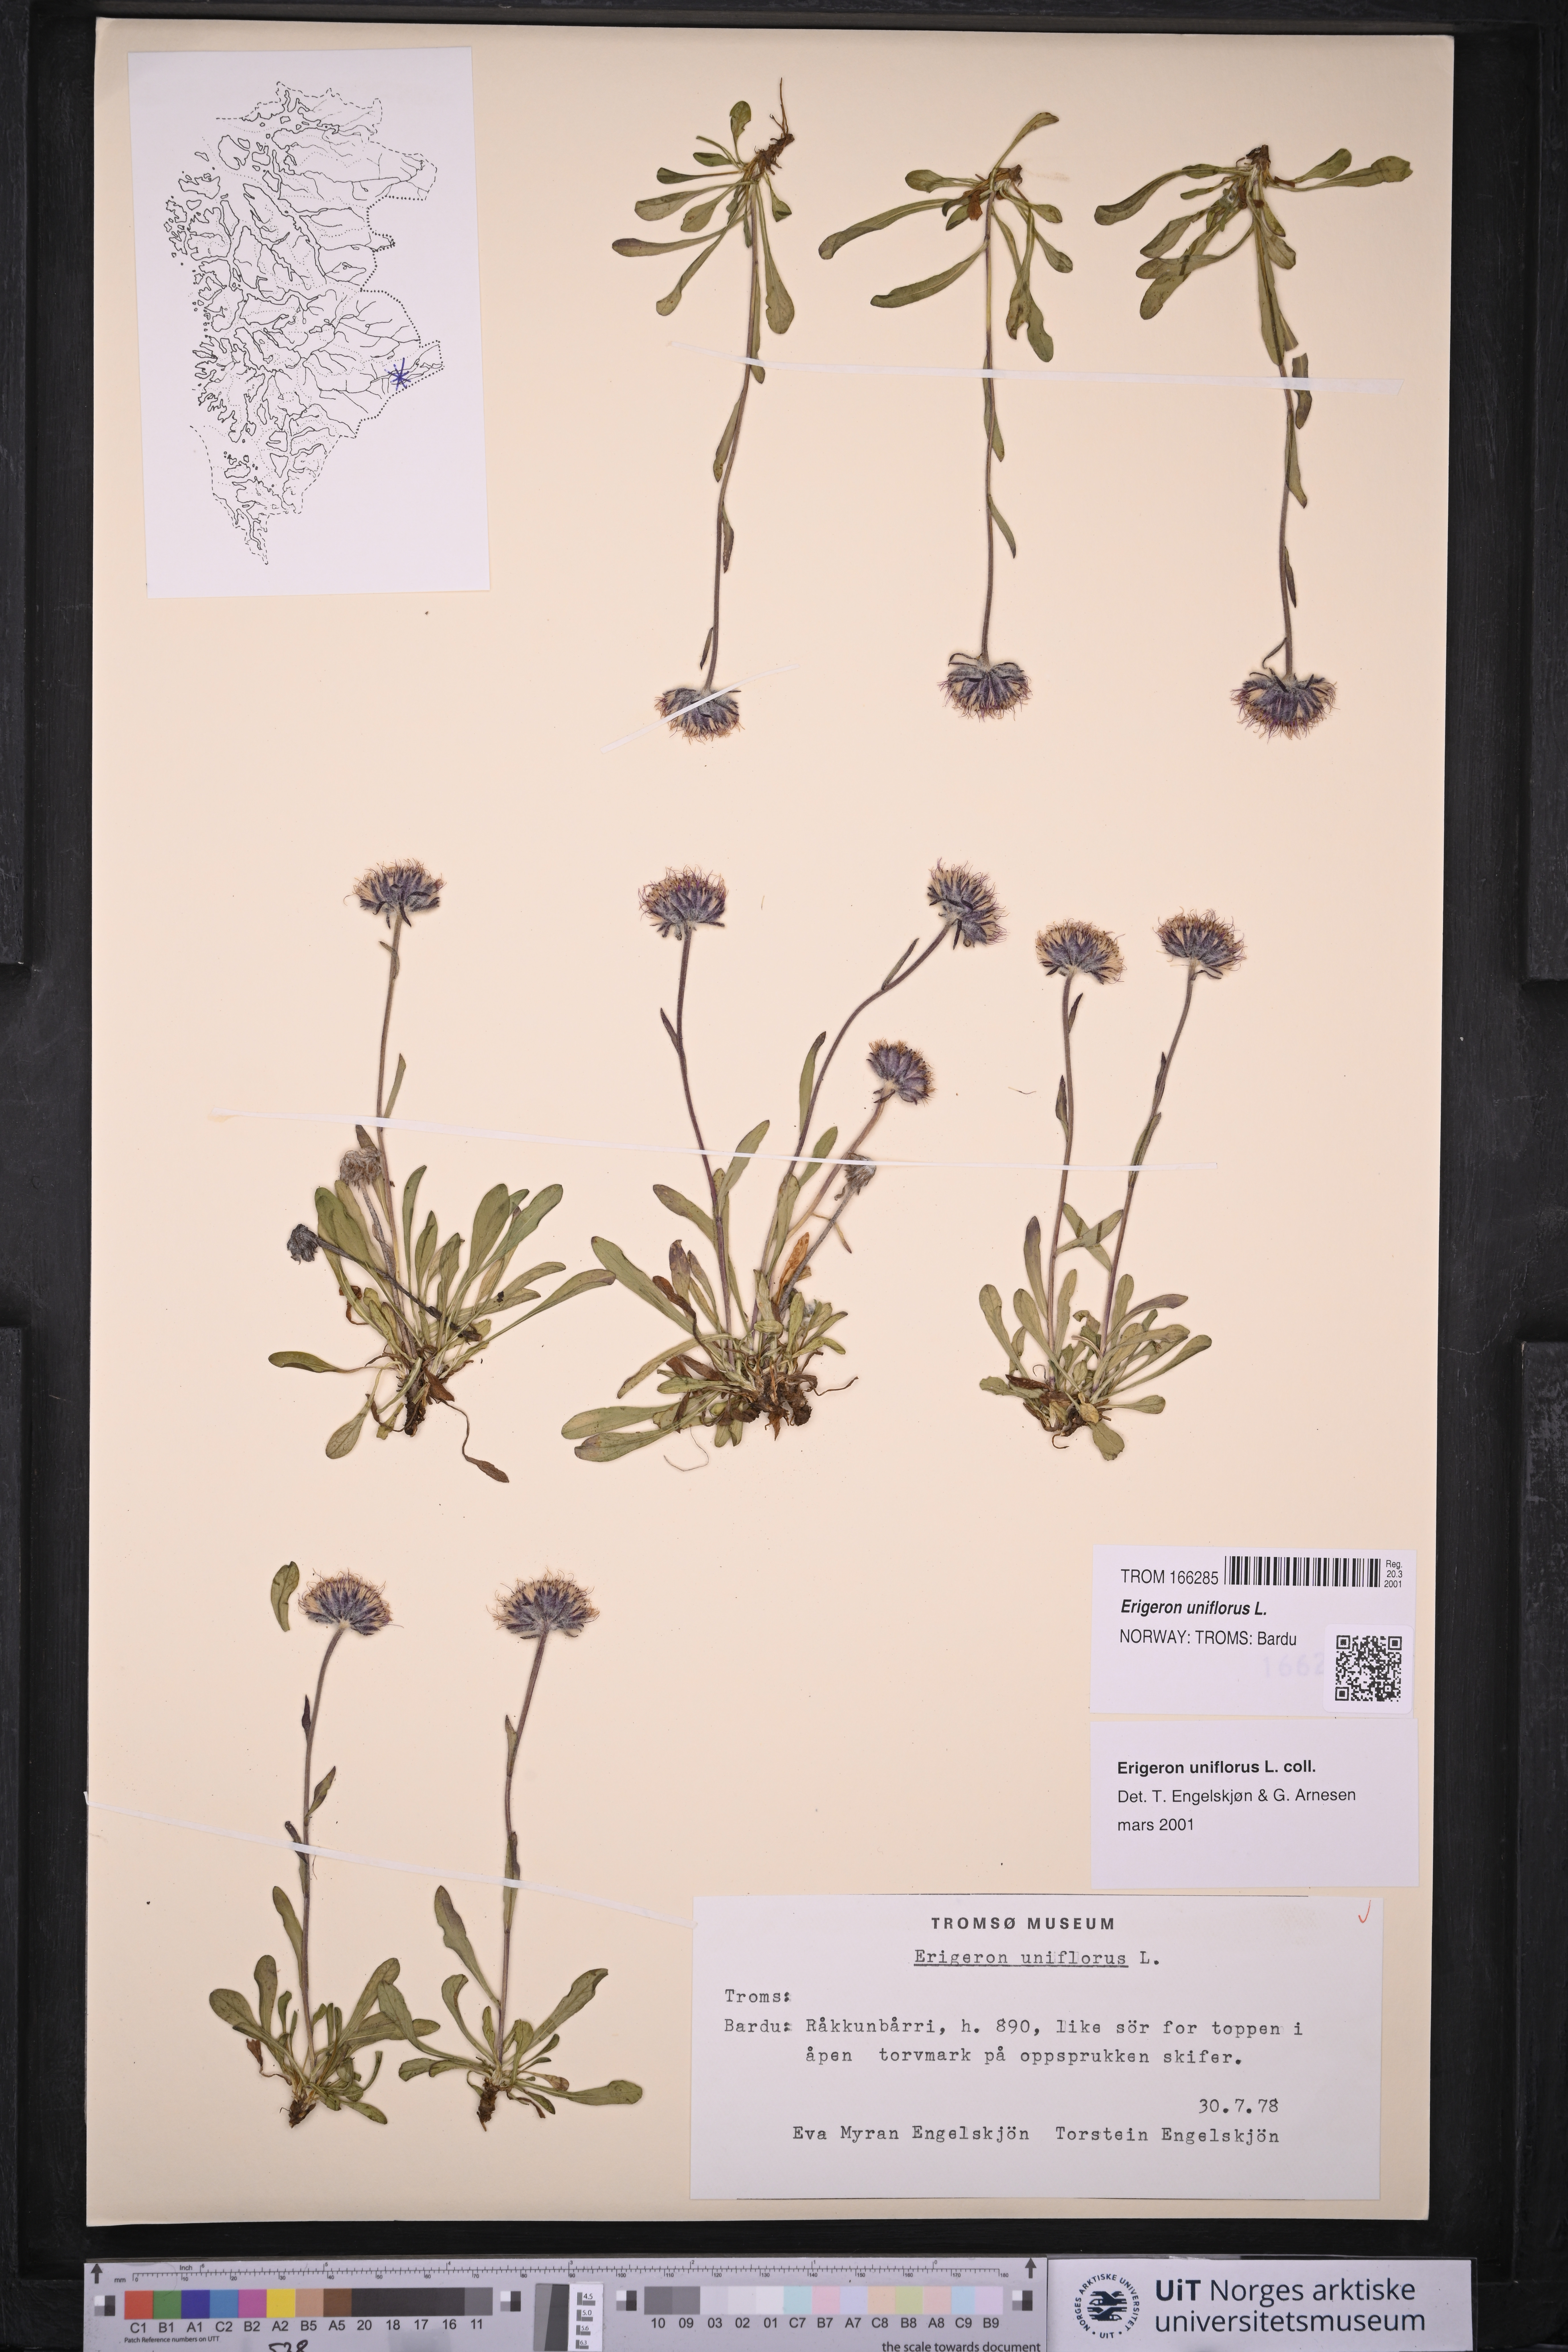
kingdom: Plantae
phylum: Tracheophyta
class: Magnoliopsida
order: Asterales
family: Asteraceae
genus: Erigeron
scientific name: Erigeron uniflorus
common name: Northern daisy
